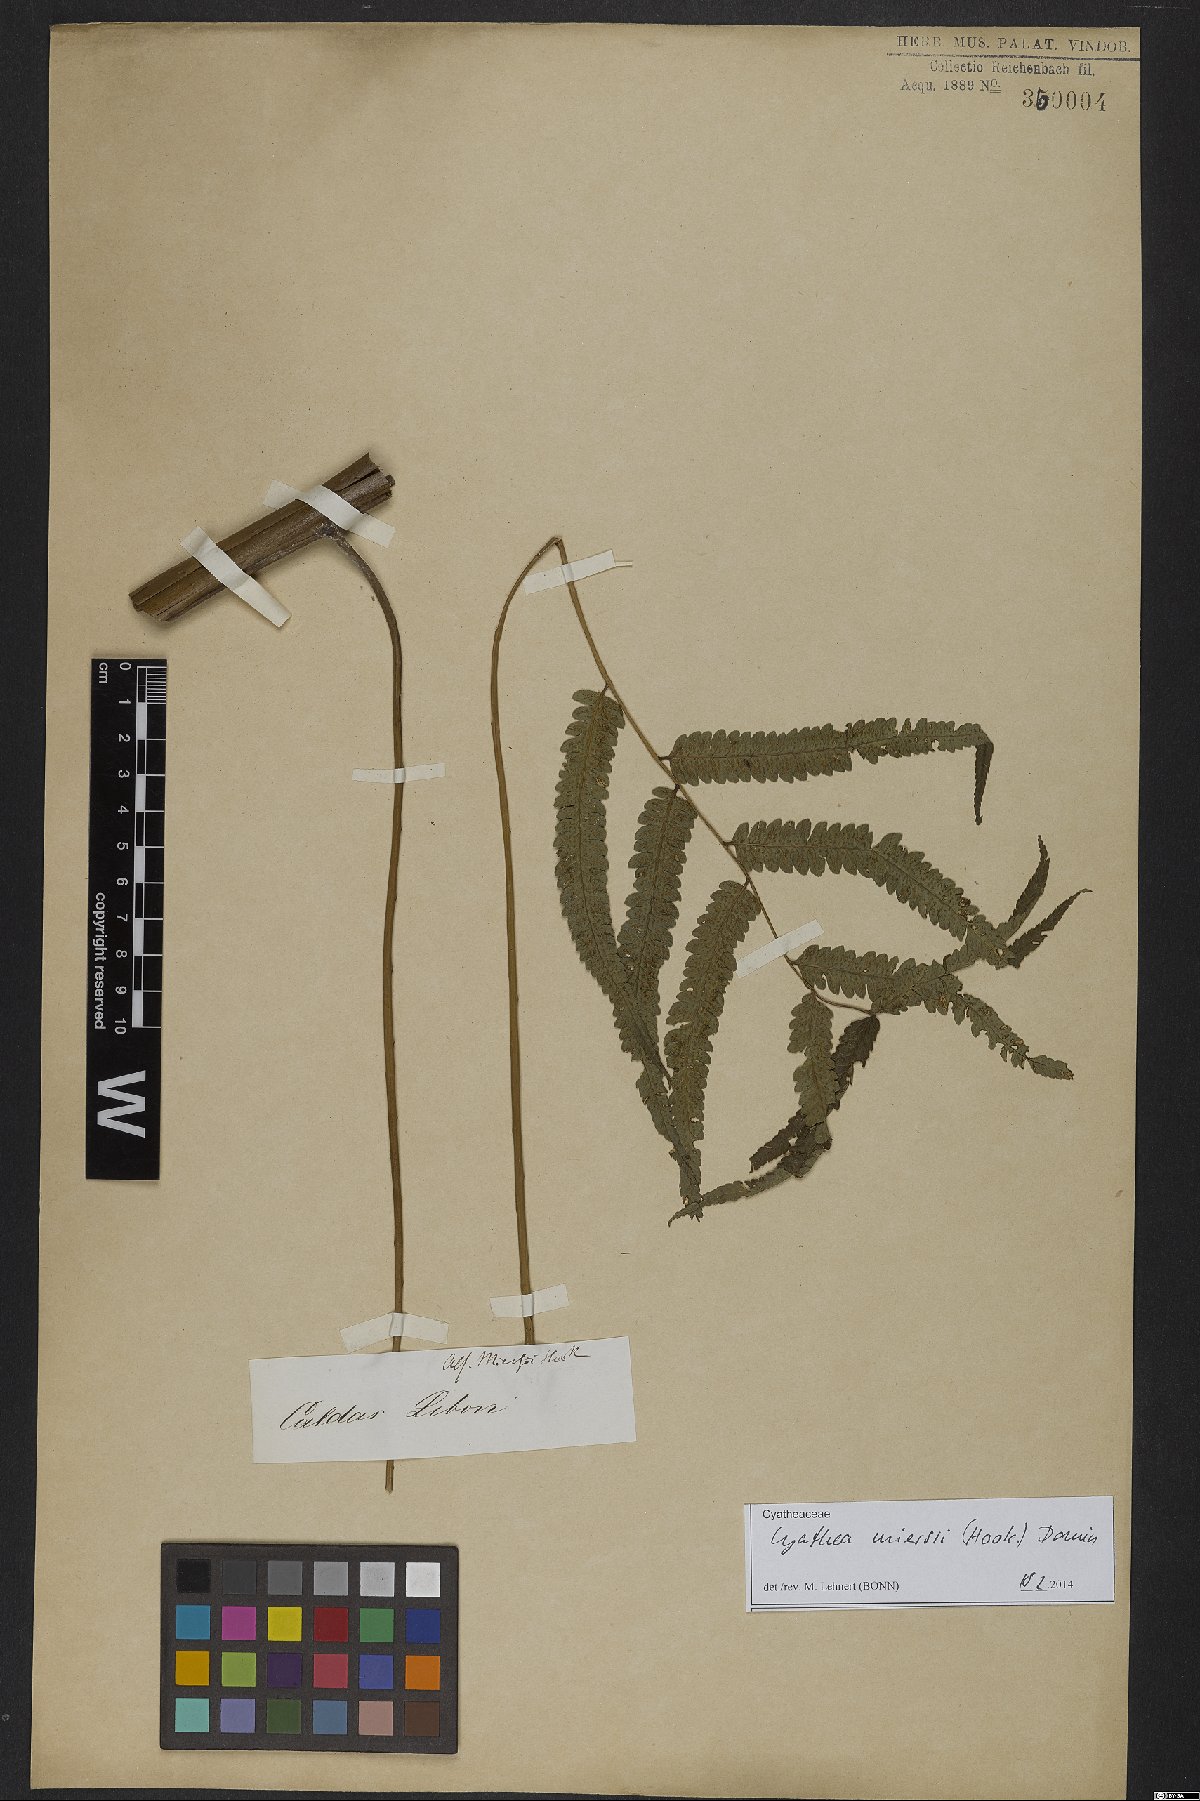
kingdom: Plantae
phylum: Tracheophyta
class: Polypodiopsida
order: Cyatheales
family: Cyatheaceae
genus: Cyathea
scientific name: Cyathea miersii
